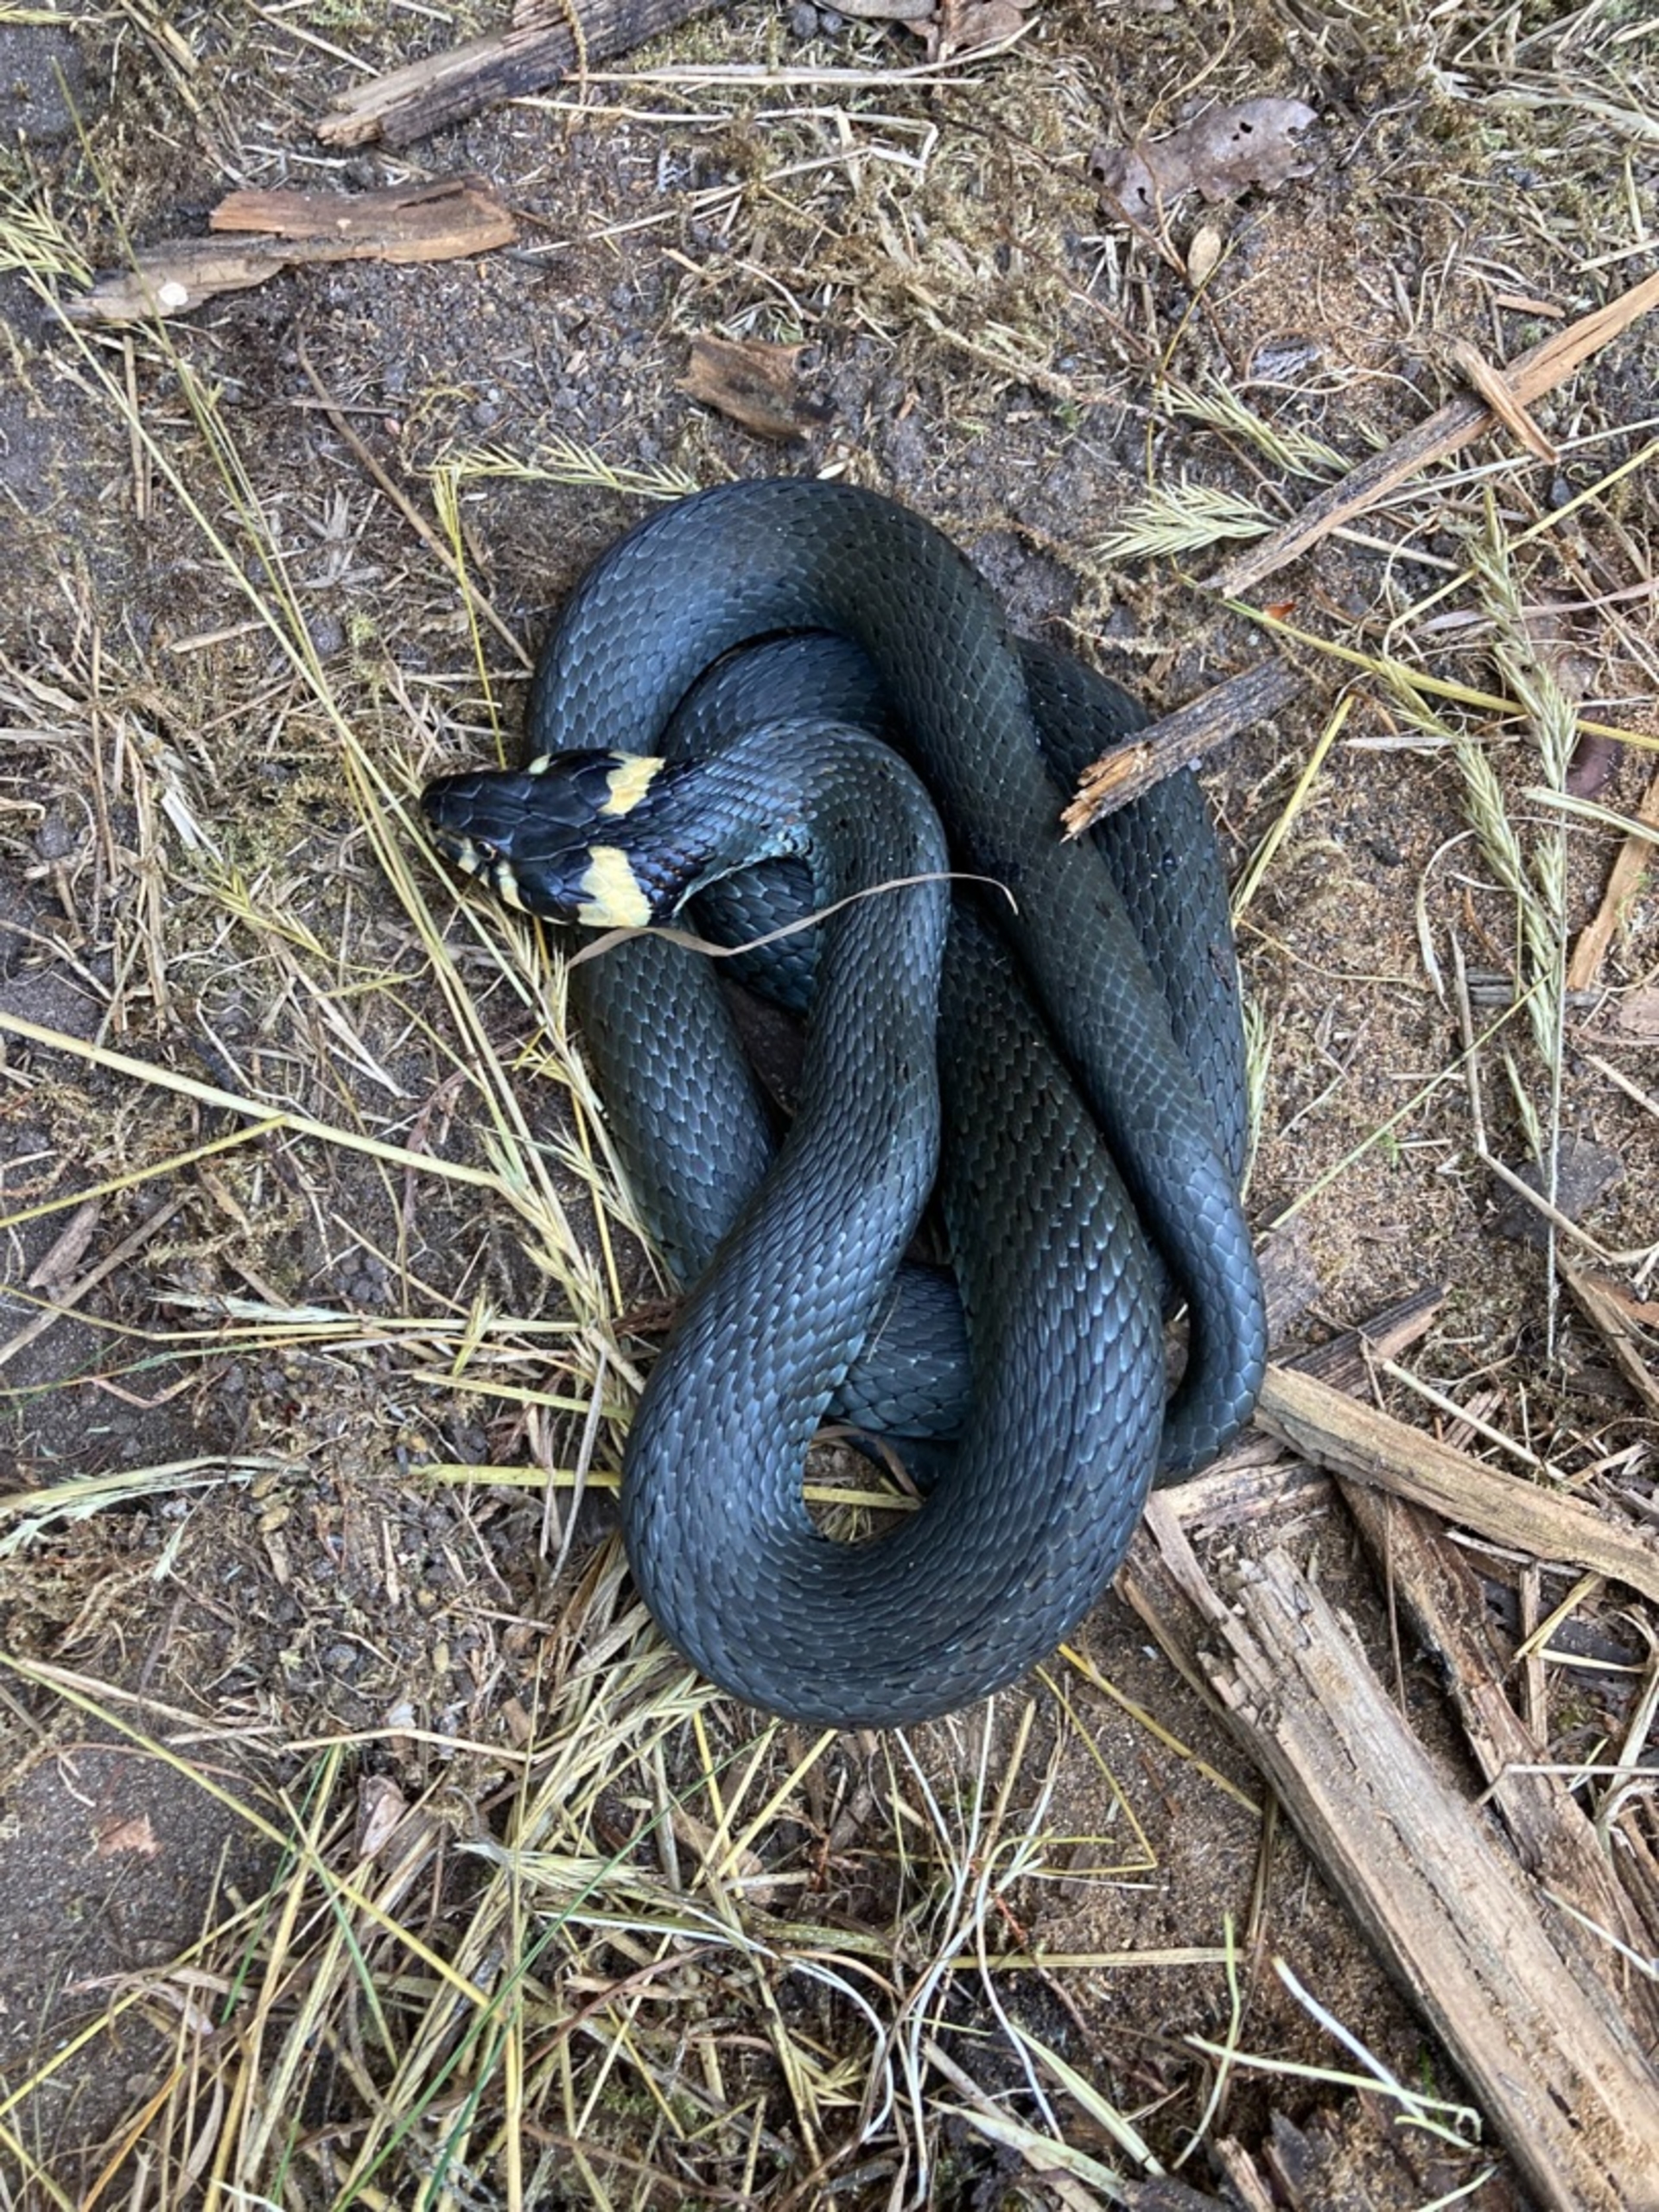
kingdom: Animalia
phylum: Chordata
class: Squamata
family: Colubridae
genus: Natrix
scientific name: Natrix natrix
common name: Snog
